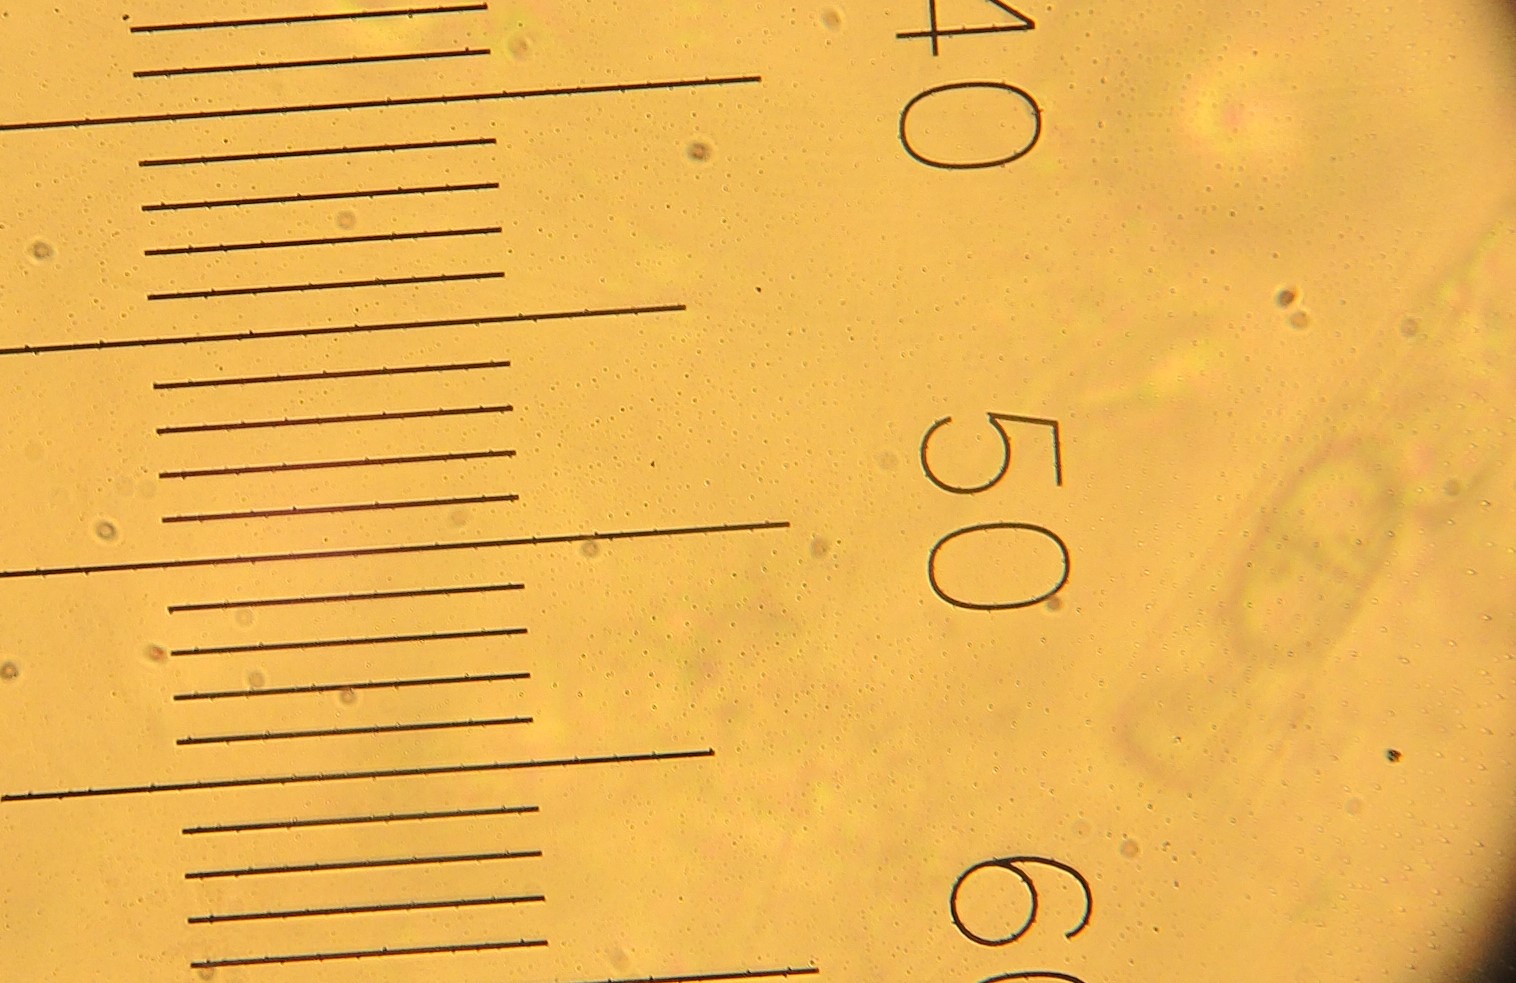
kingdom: Fungi
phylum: Ascomycota
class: Sordariomycetes
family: Thyridiaceae
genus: Thyronectria
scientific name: Thyronectria aquifolii
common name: kristtorn-cinnobersvamp
